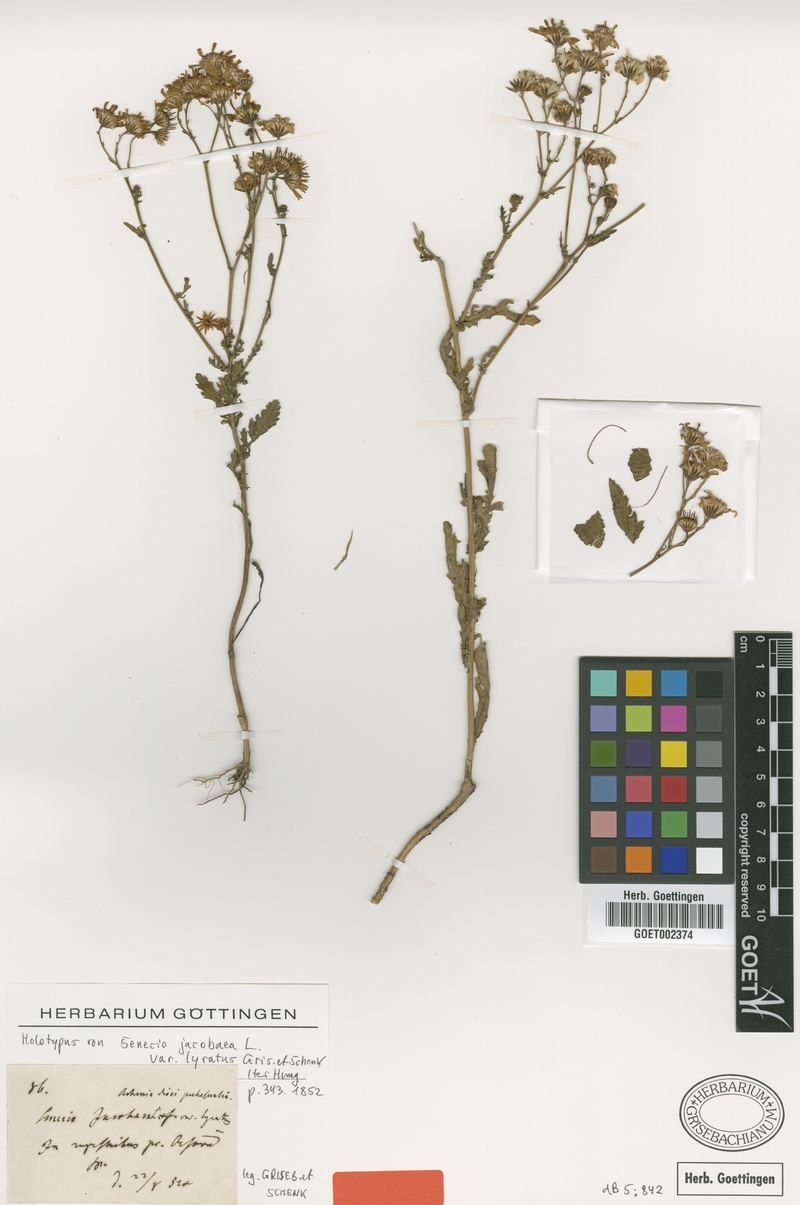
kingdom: Plantae
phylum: Tracheophyta
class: Magnoliopsida
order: Asterales
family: Asteraceae
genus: Jacobaea
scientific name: Jacobaea vulgaris
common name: Stinking willie
